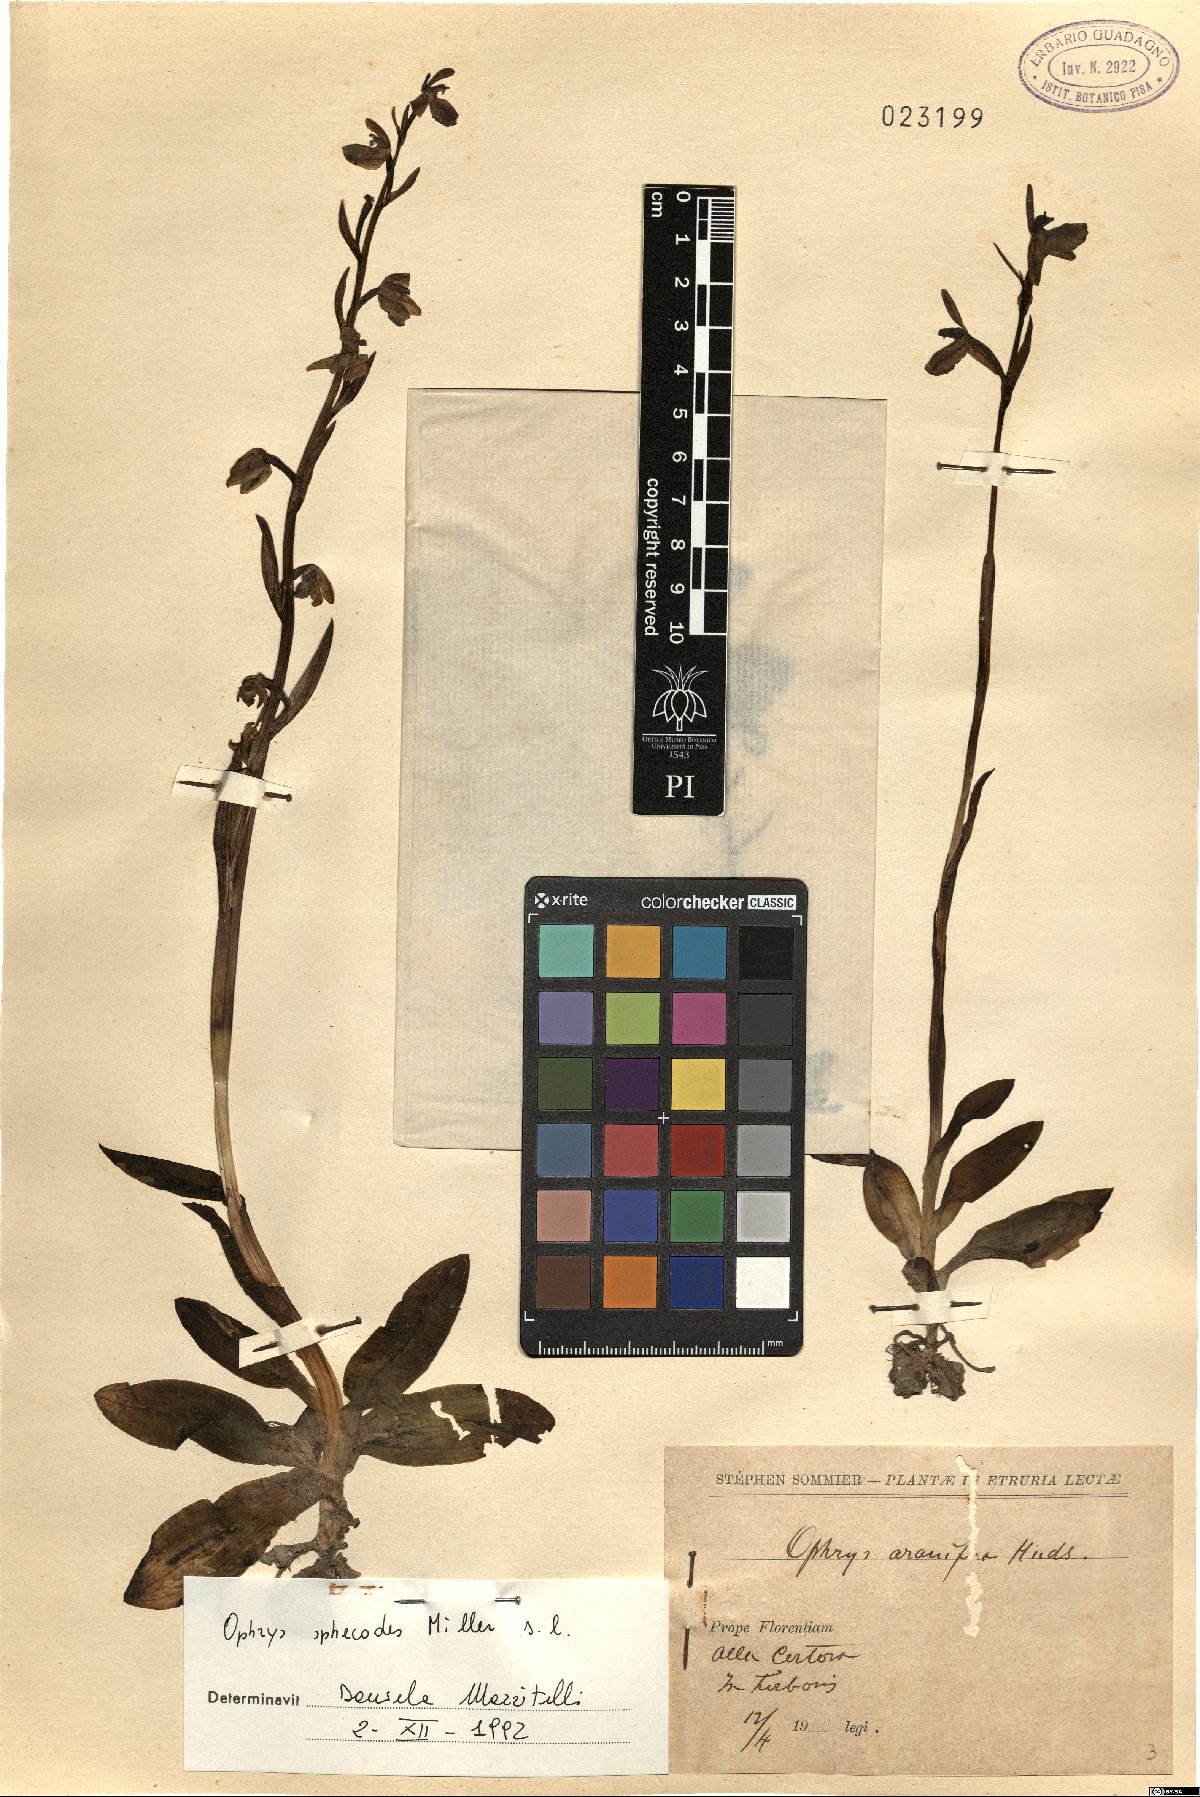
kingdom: Plantae
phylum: Tracheophyta
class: Liliopsida
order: Asparagales
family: Orchidaceae
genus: Ophrys
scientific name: Ophrys sphegodes
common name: Early spider-orchid
